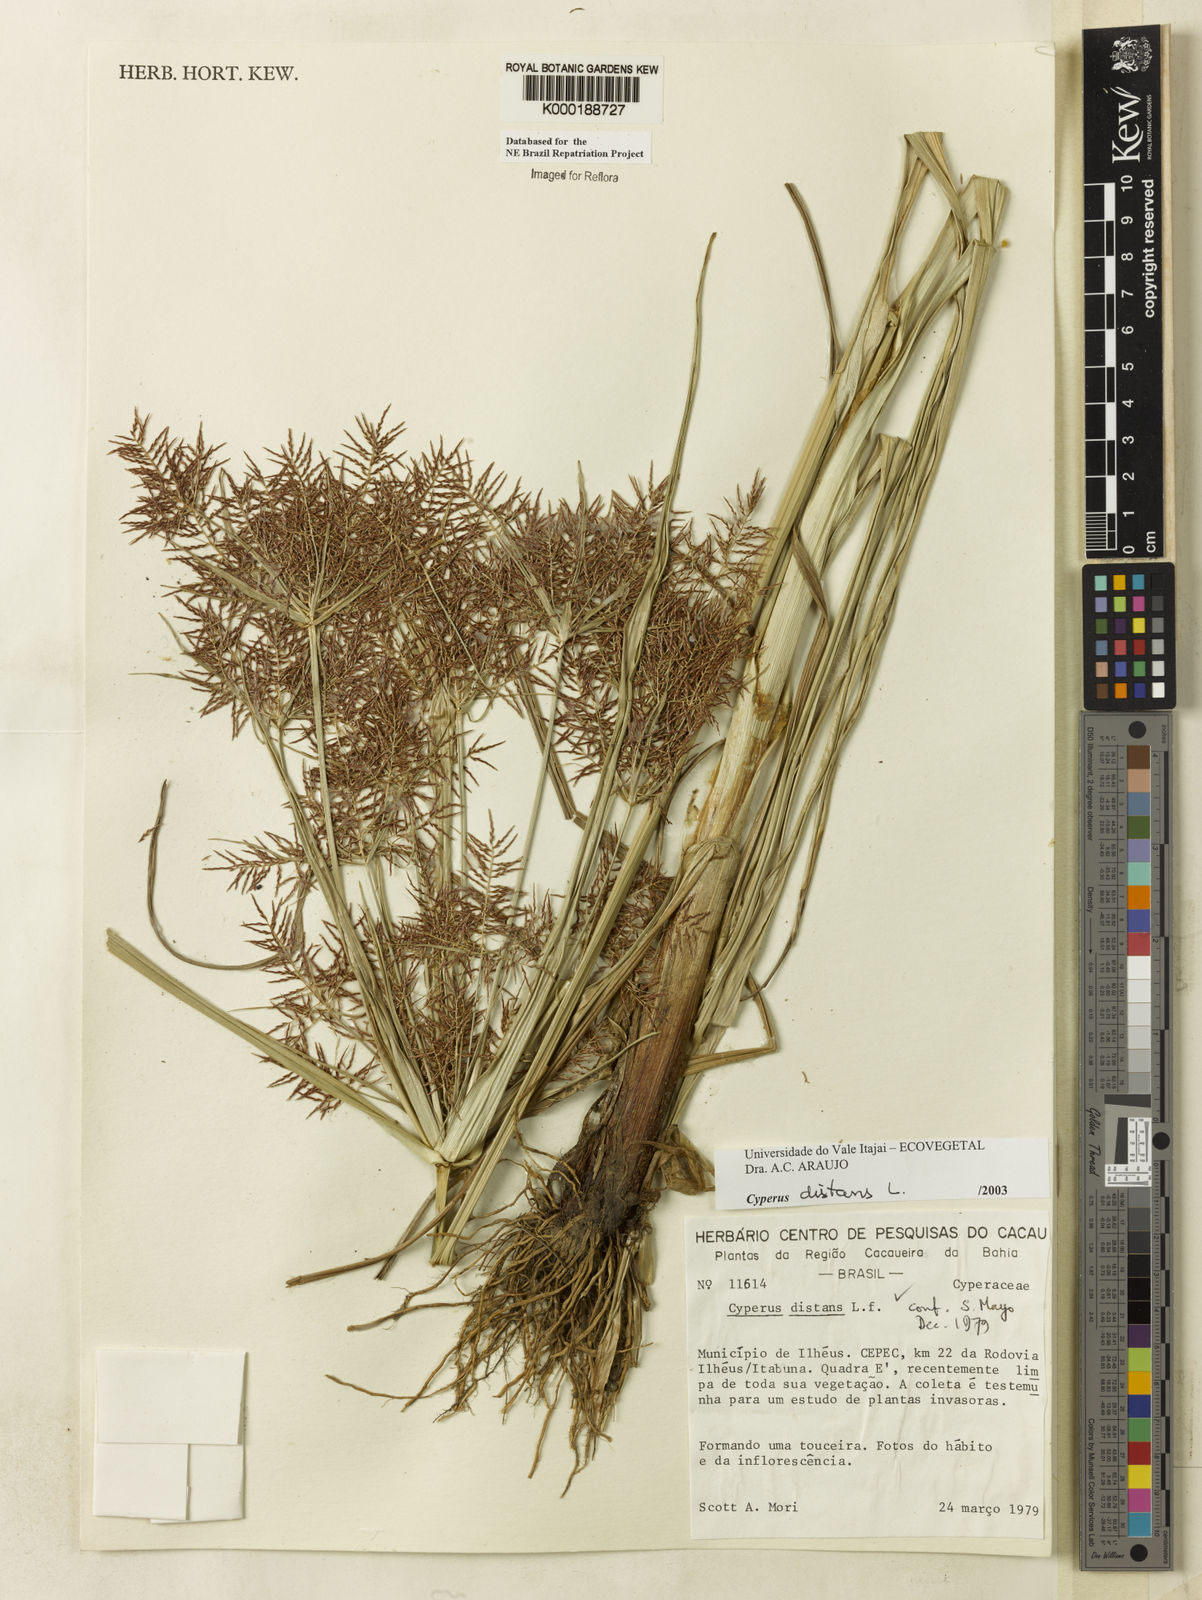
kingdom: Plantae
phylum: Tracheophyta
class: Liliopsida
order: Poales
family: Cyperaceae
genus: Cyperus
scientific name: Cyperus distans
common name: Slender cyperus
